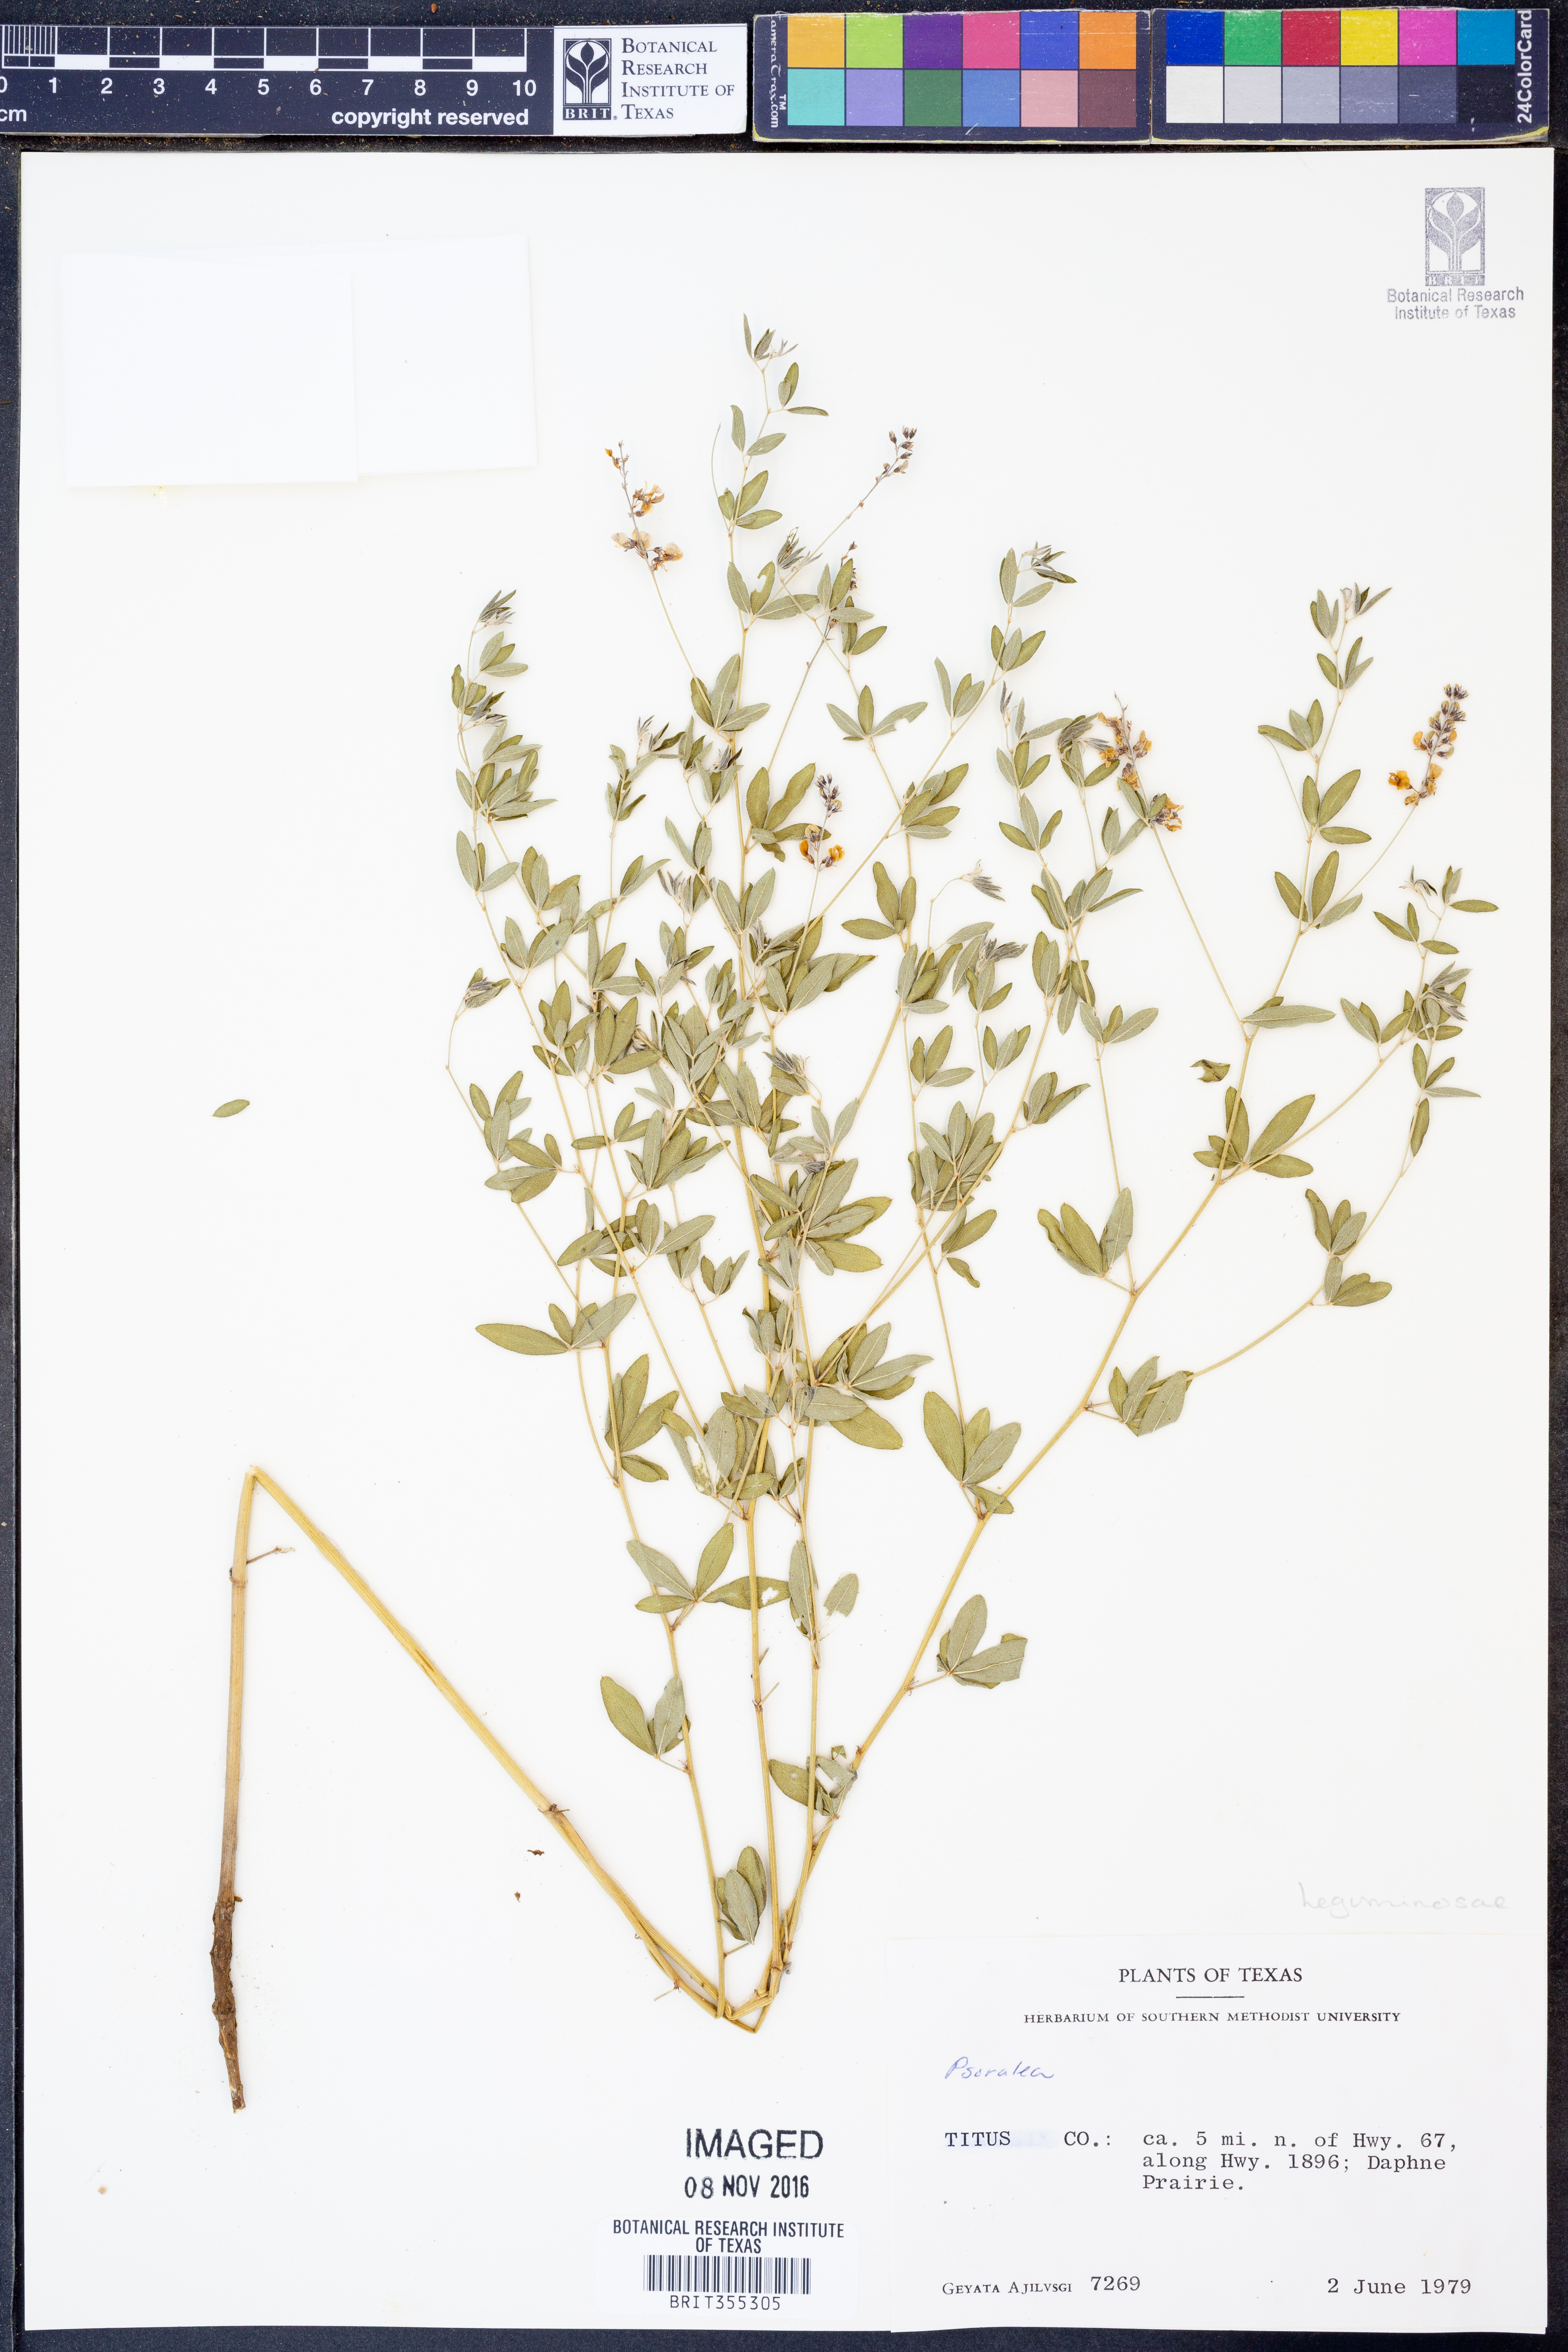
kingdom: Plantae
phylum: Tracheophyta
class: Magnoliopsida
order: Fabales
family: Fabaceae
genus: Psoralea
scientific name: Psoralea
